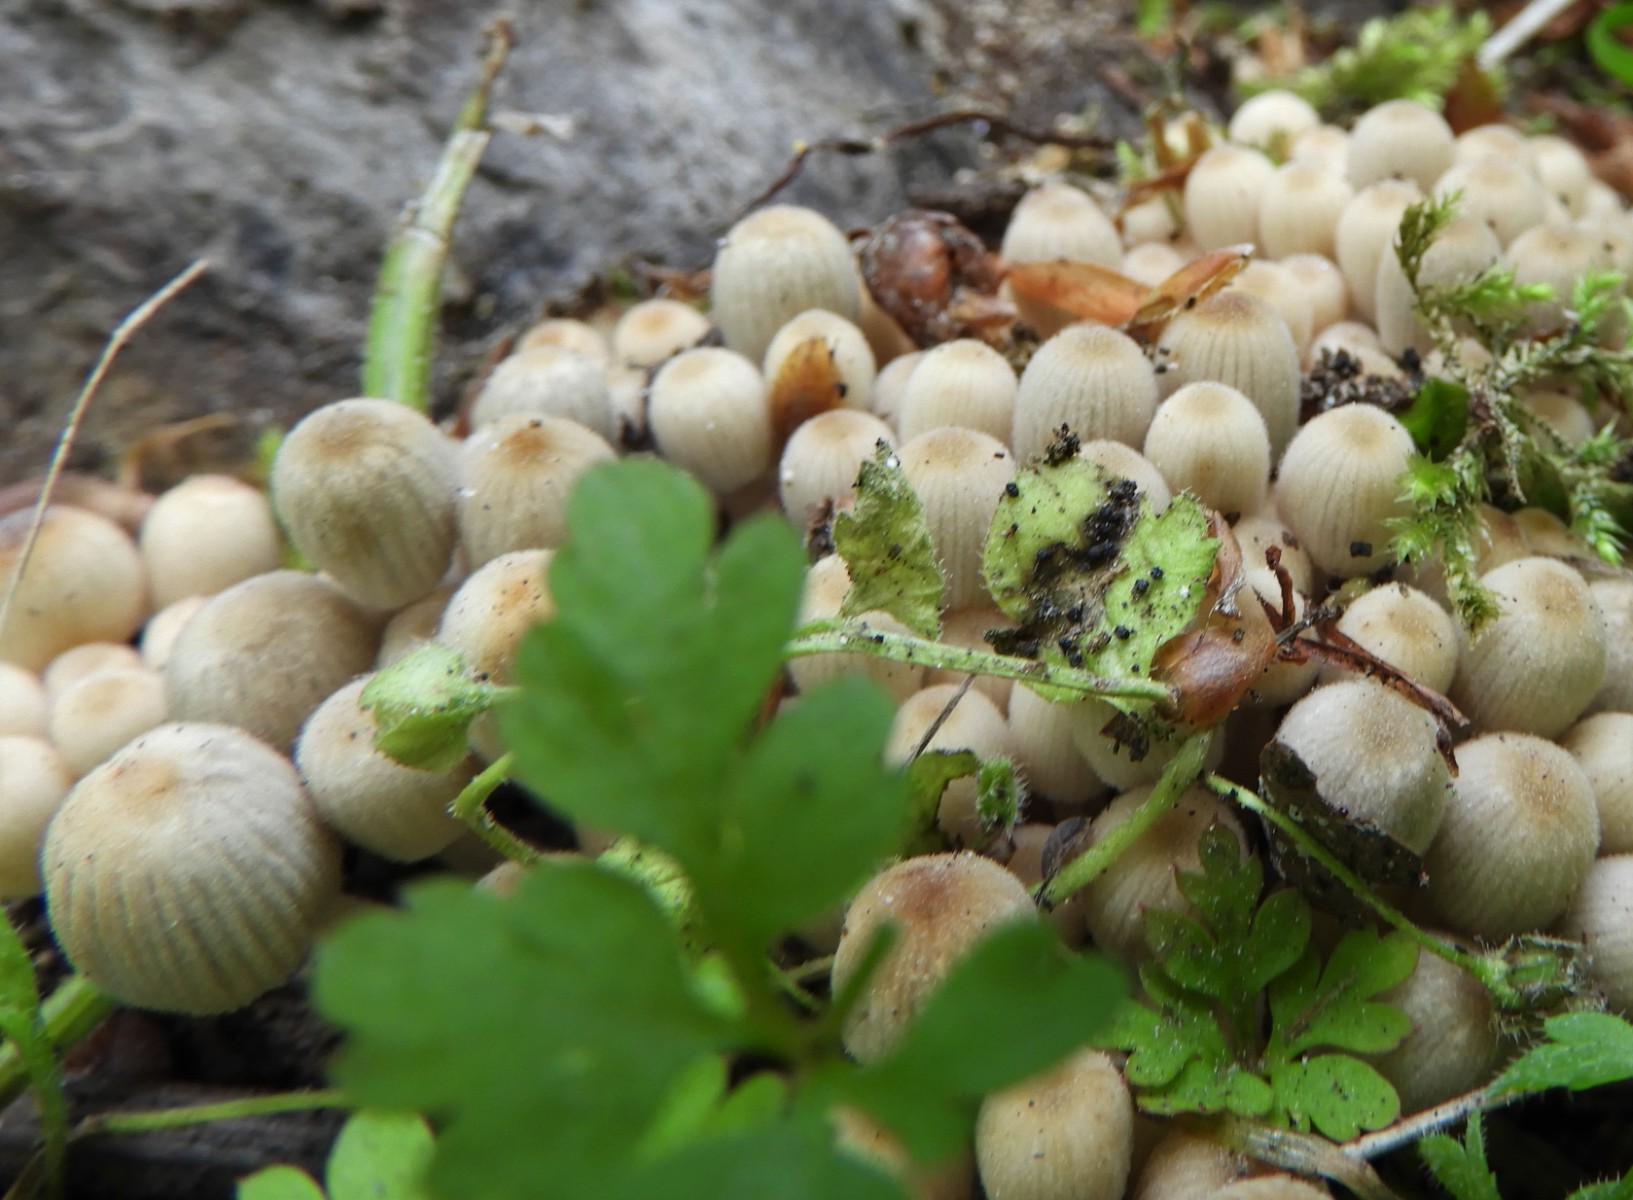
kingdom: Fungi
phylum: Basidiomycota
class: Agaricomycetes
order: Agaricales
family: Psathyrellaceae
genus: Coprinellus
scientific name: Coprinellus disseminatus
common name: bredsået blækhat
